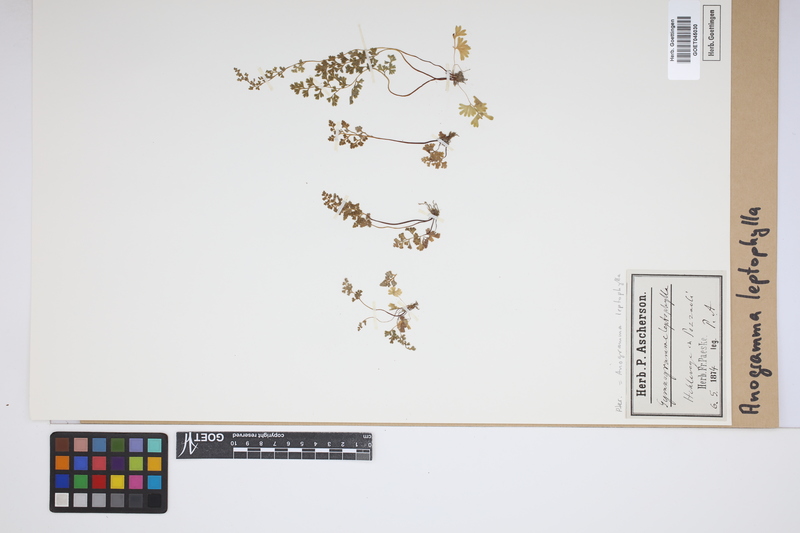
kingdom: Plantae
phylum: Tracheophyta
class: Polypodiopsida
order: Polypodiales
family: Pteridaceae
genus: Anogramma
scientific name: Anogramma leptophylla
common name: Jersey fern
